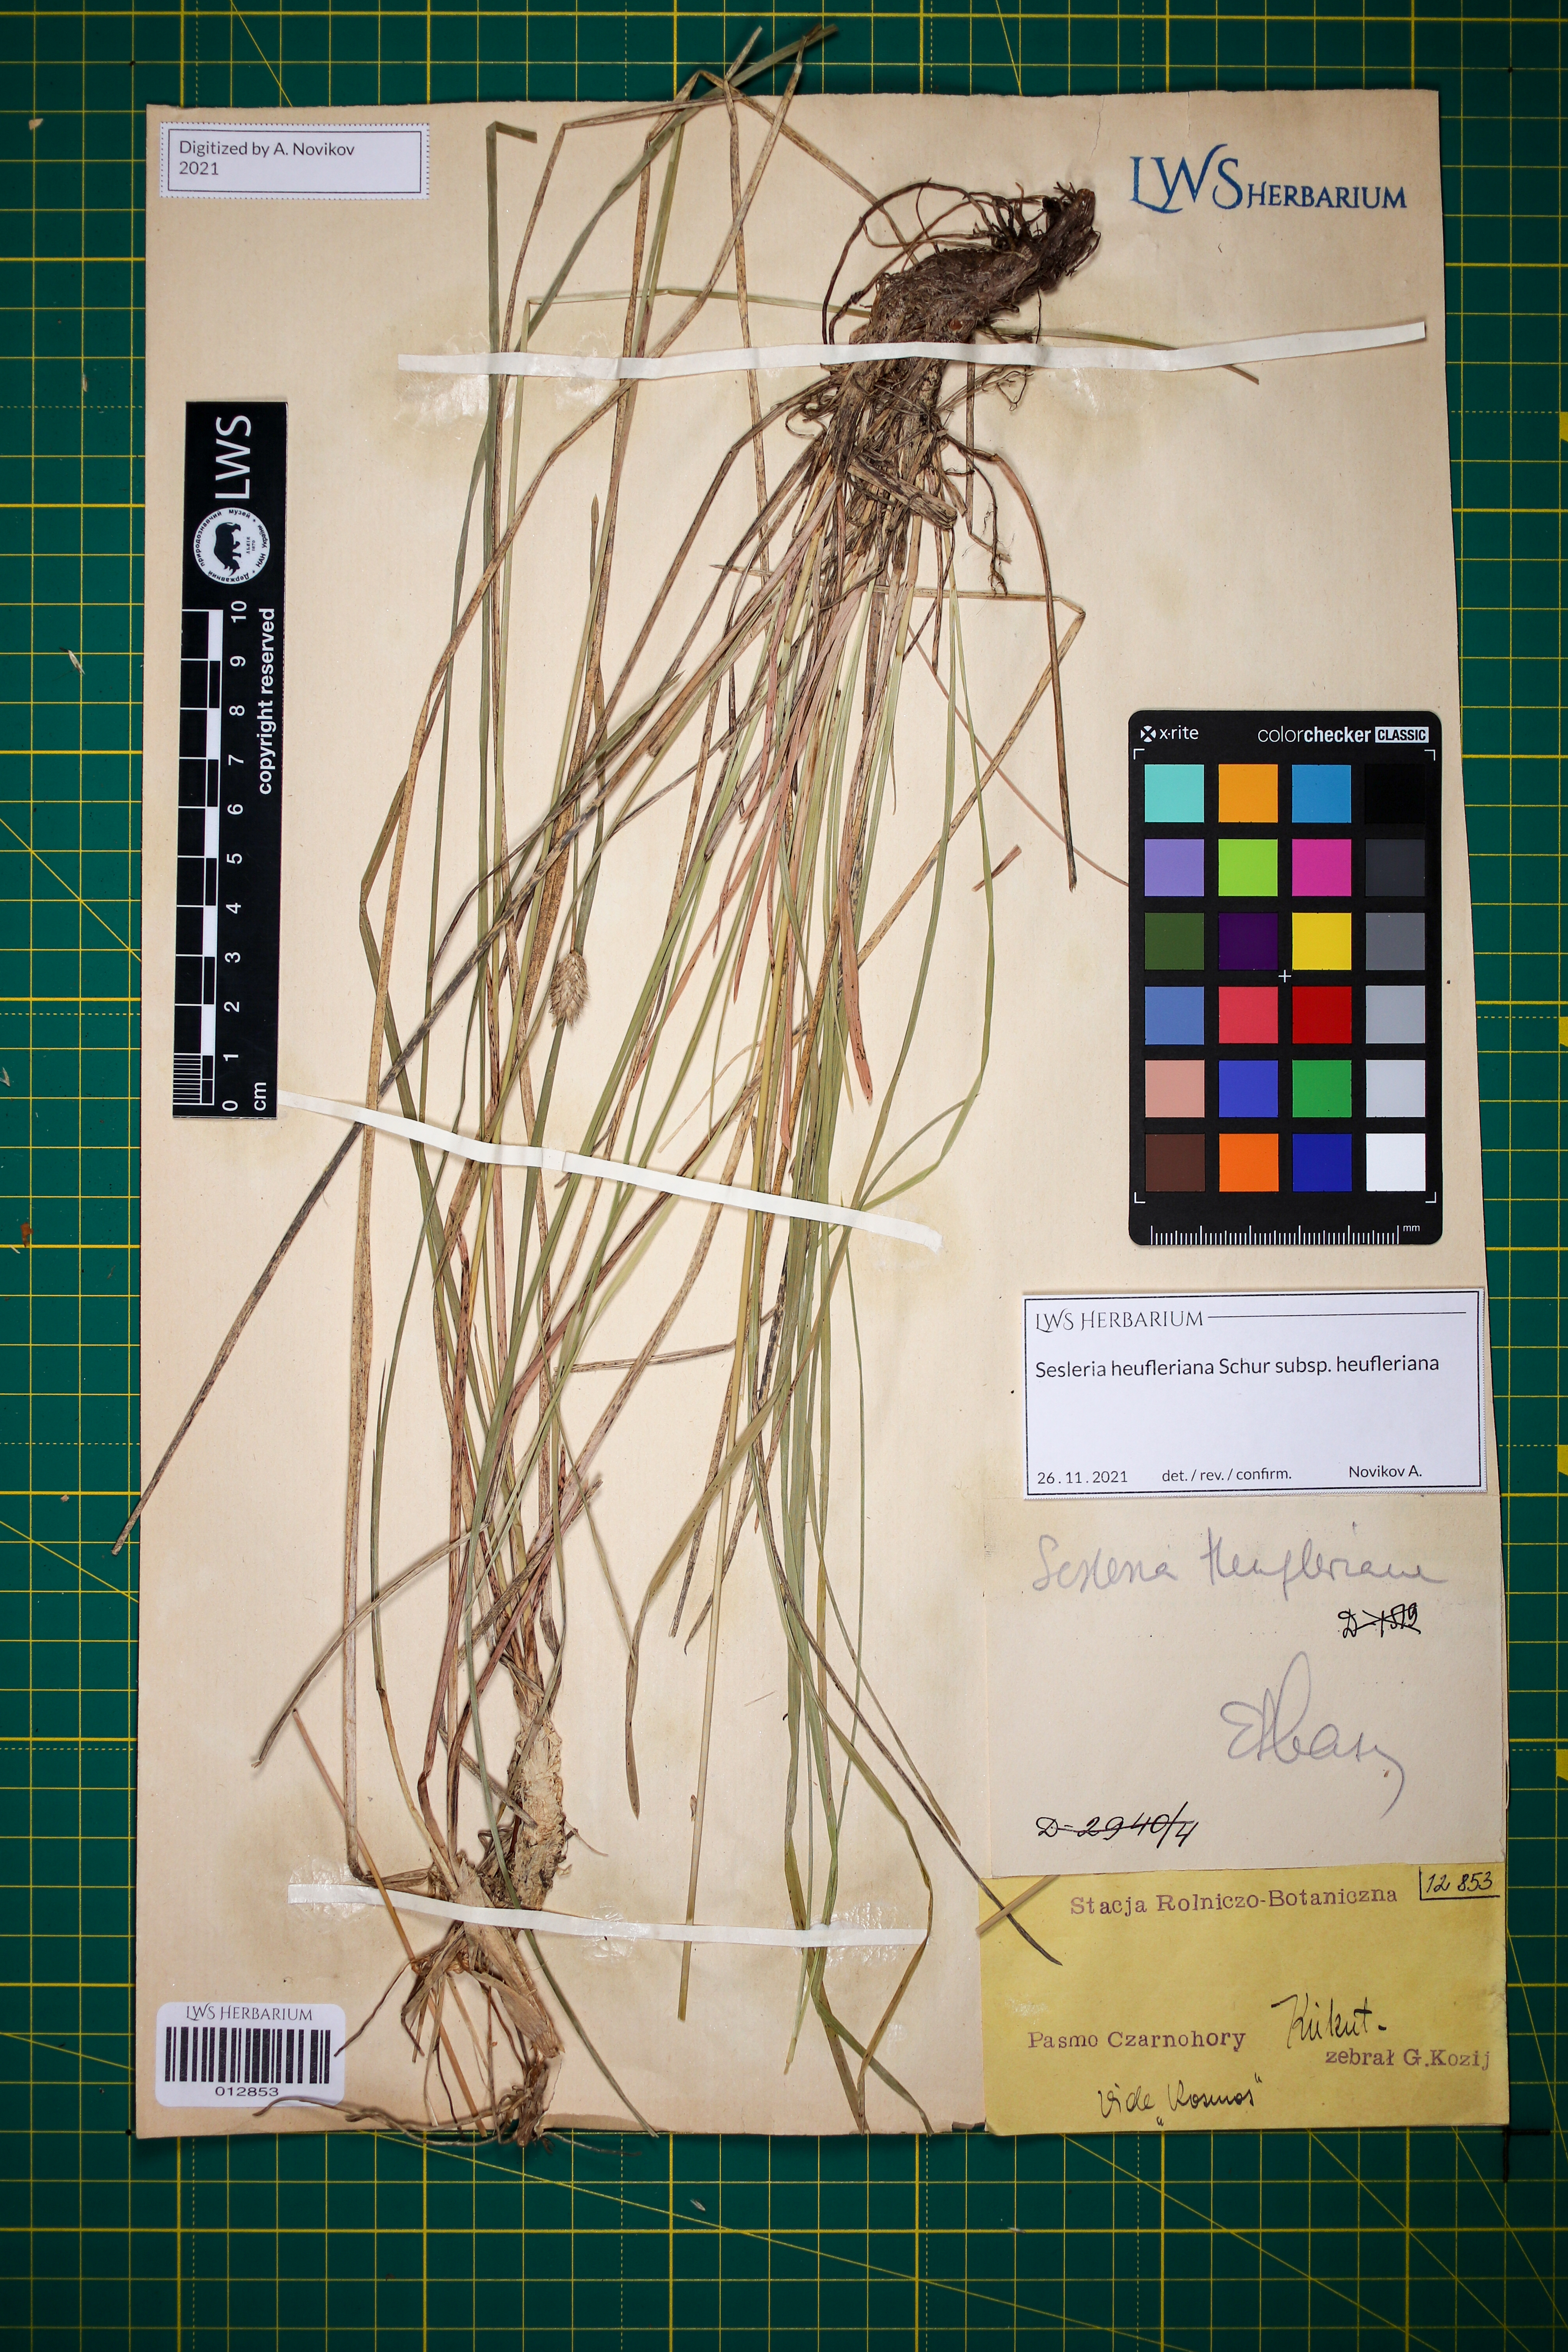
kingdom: Plantae
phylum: Tracheophyta
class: Liliopsida
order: Poales
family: Poaceae
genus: Sesleria
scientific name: Sesleria heufleriana
